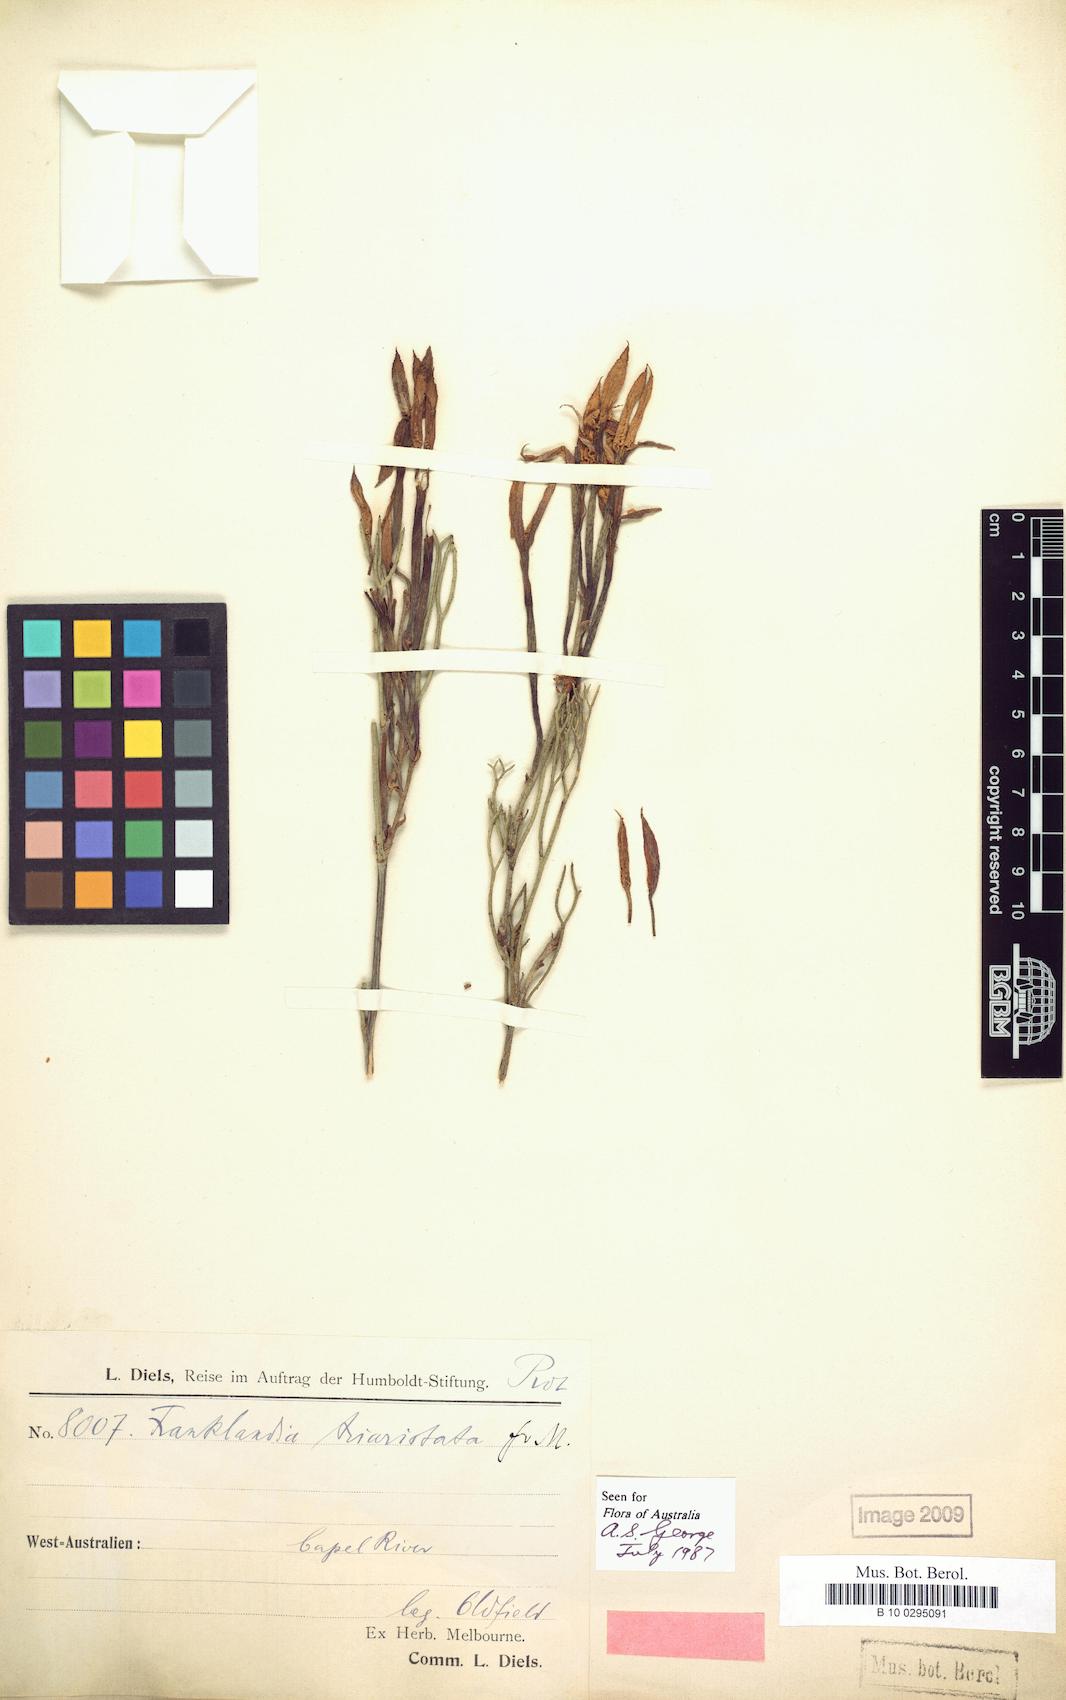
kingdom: Plantae
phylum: Tracheophyta
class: Magnoliopsida
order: Proteales
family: Proteaceae
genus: Franklandia
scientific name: Franklandia triaristata
